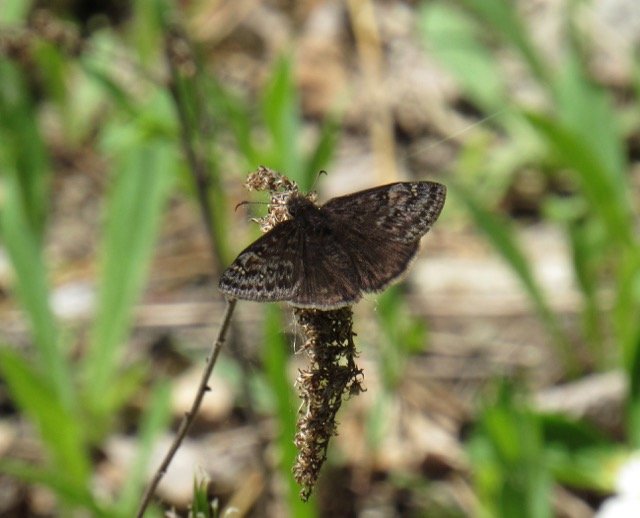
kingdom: Animalia
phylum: Arthropoda
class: Insecta
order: Lepidoptera
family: Hesperiidae
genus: Gesta
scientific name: Gesta
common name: Juvenal's Duskywing
